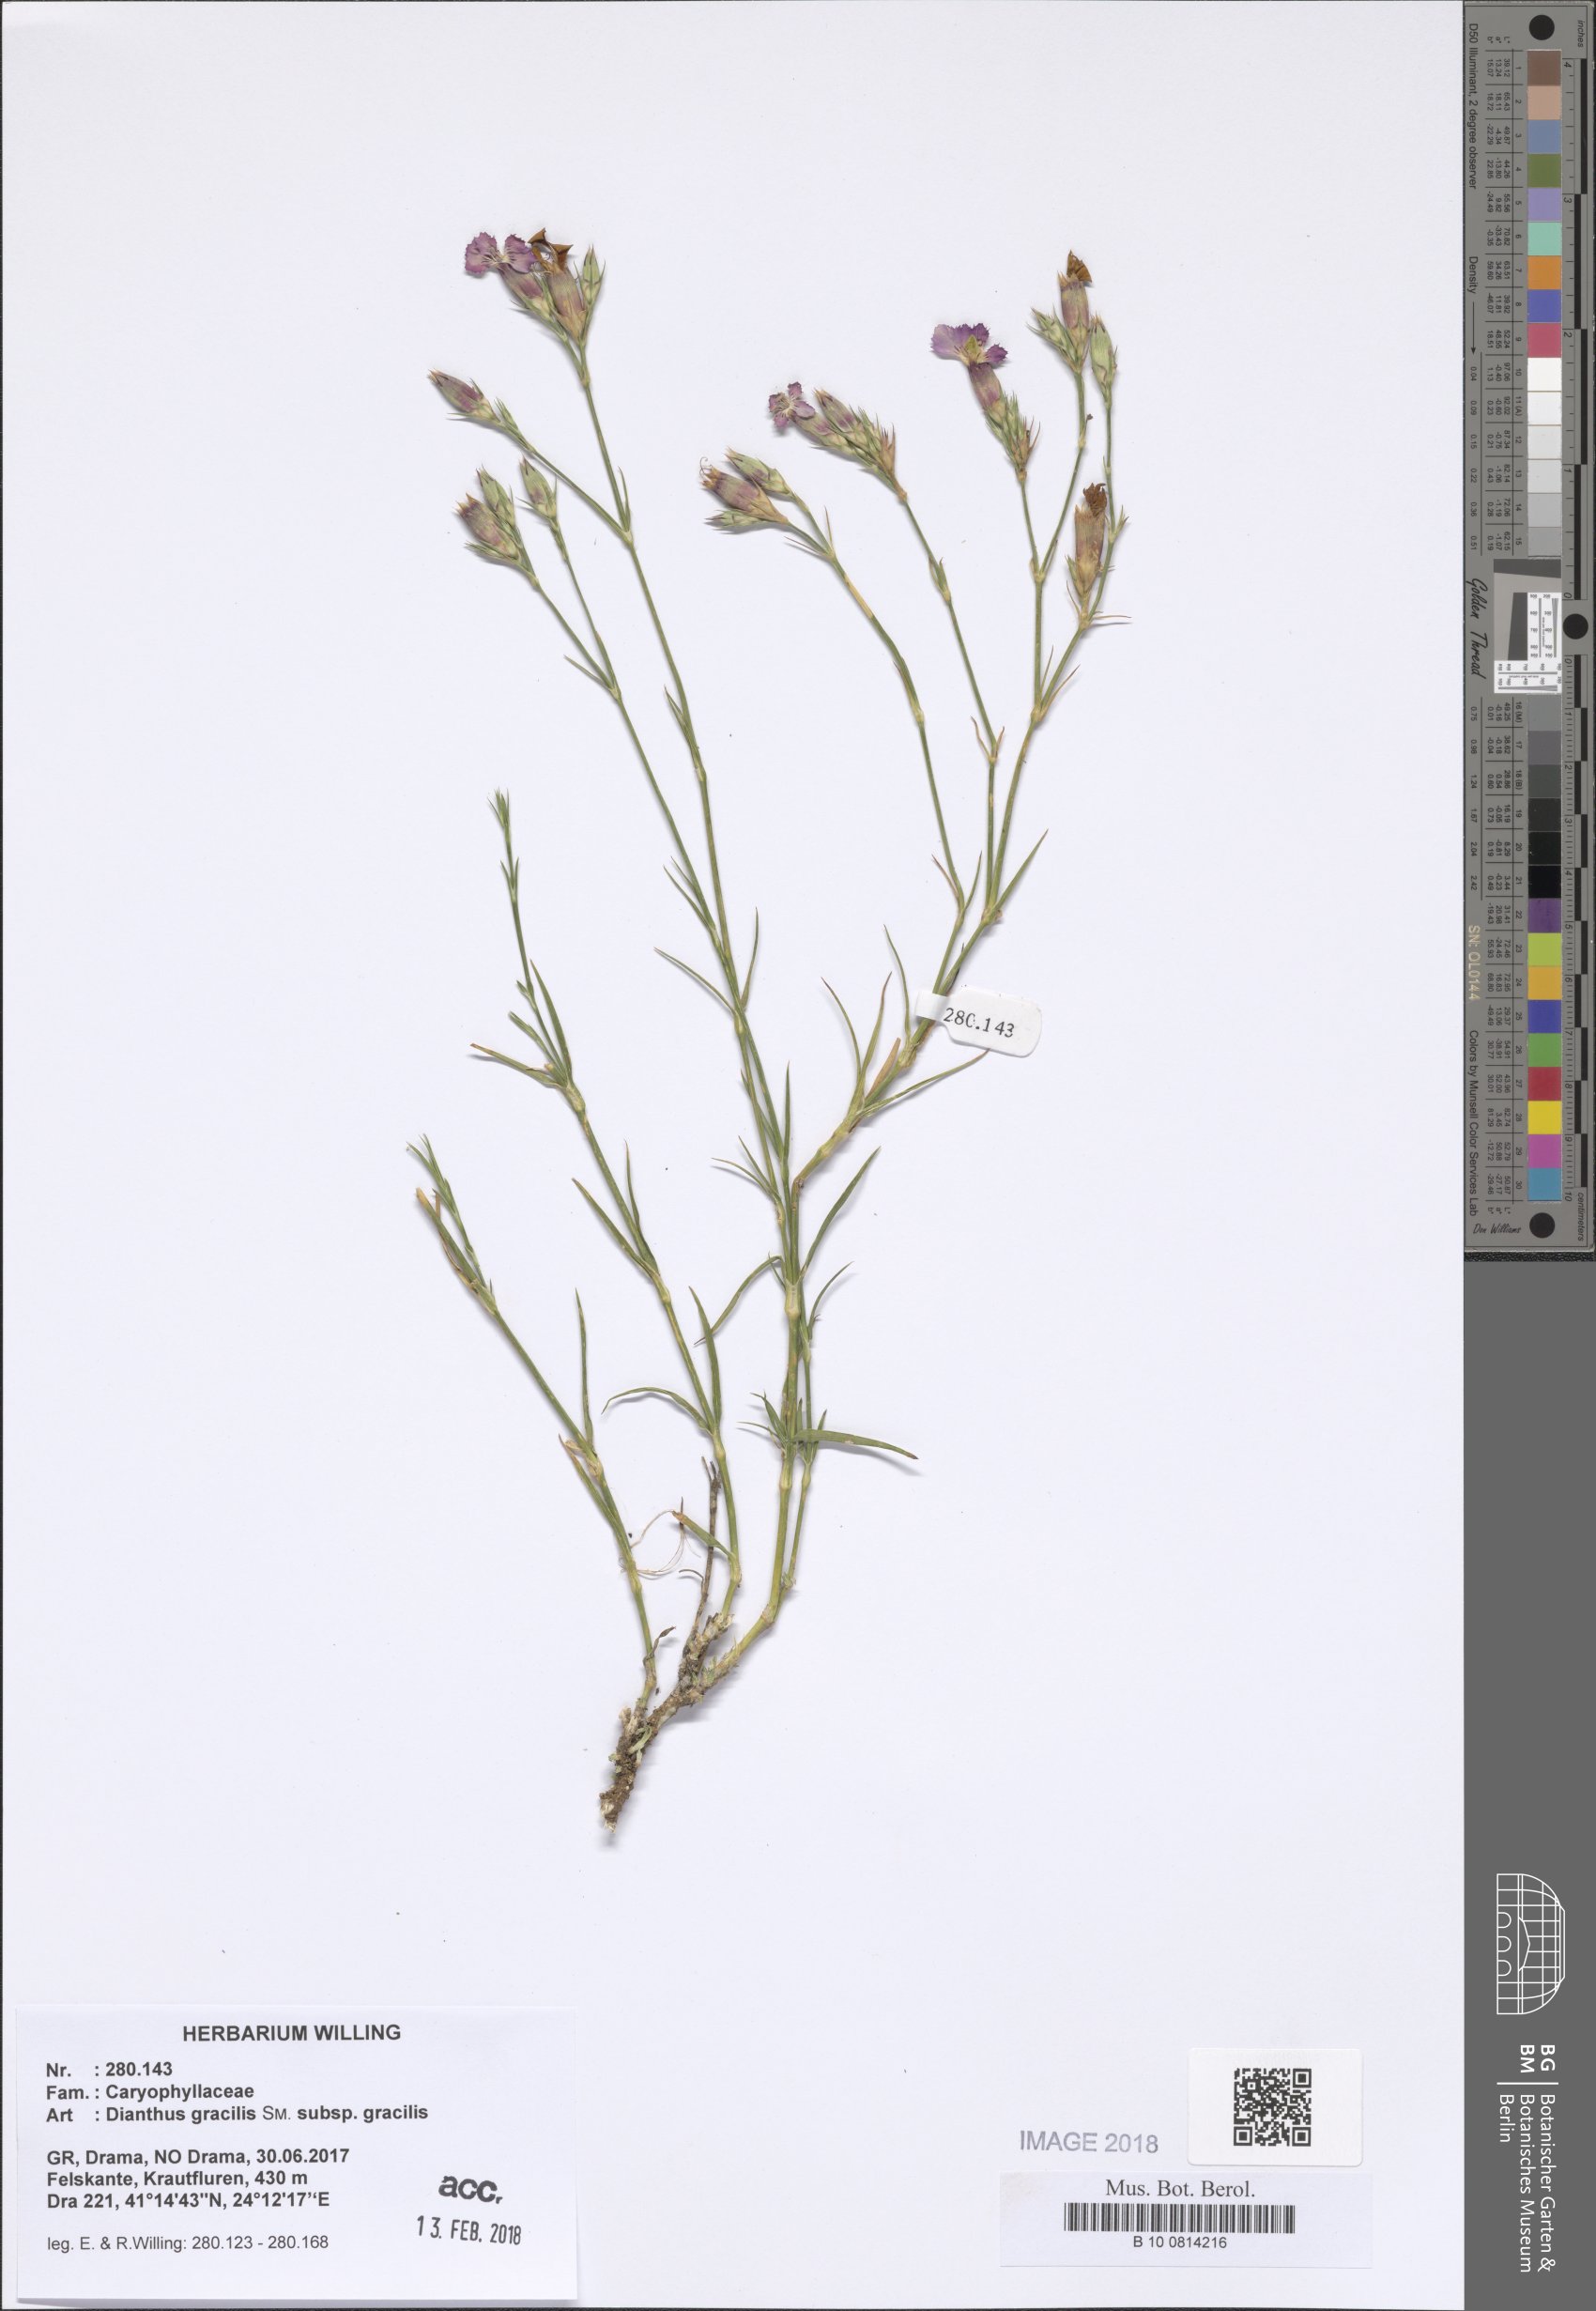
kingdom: Plantae
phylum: Tracheophyta
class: Magnoliopsida
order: Caryophyllales
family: Caryophyllaceae
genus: Dianthus
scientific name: Dianthus gracilis
